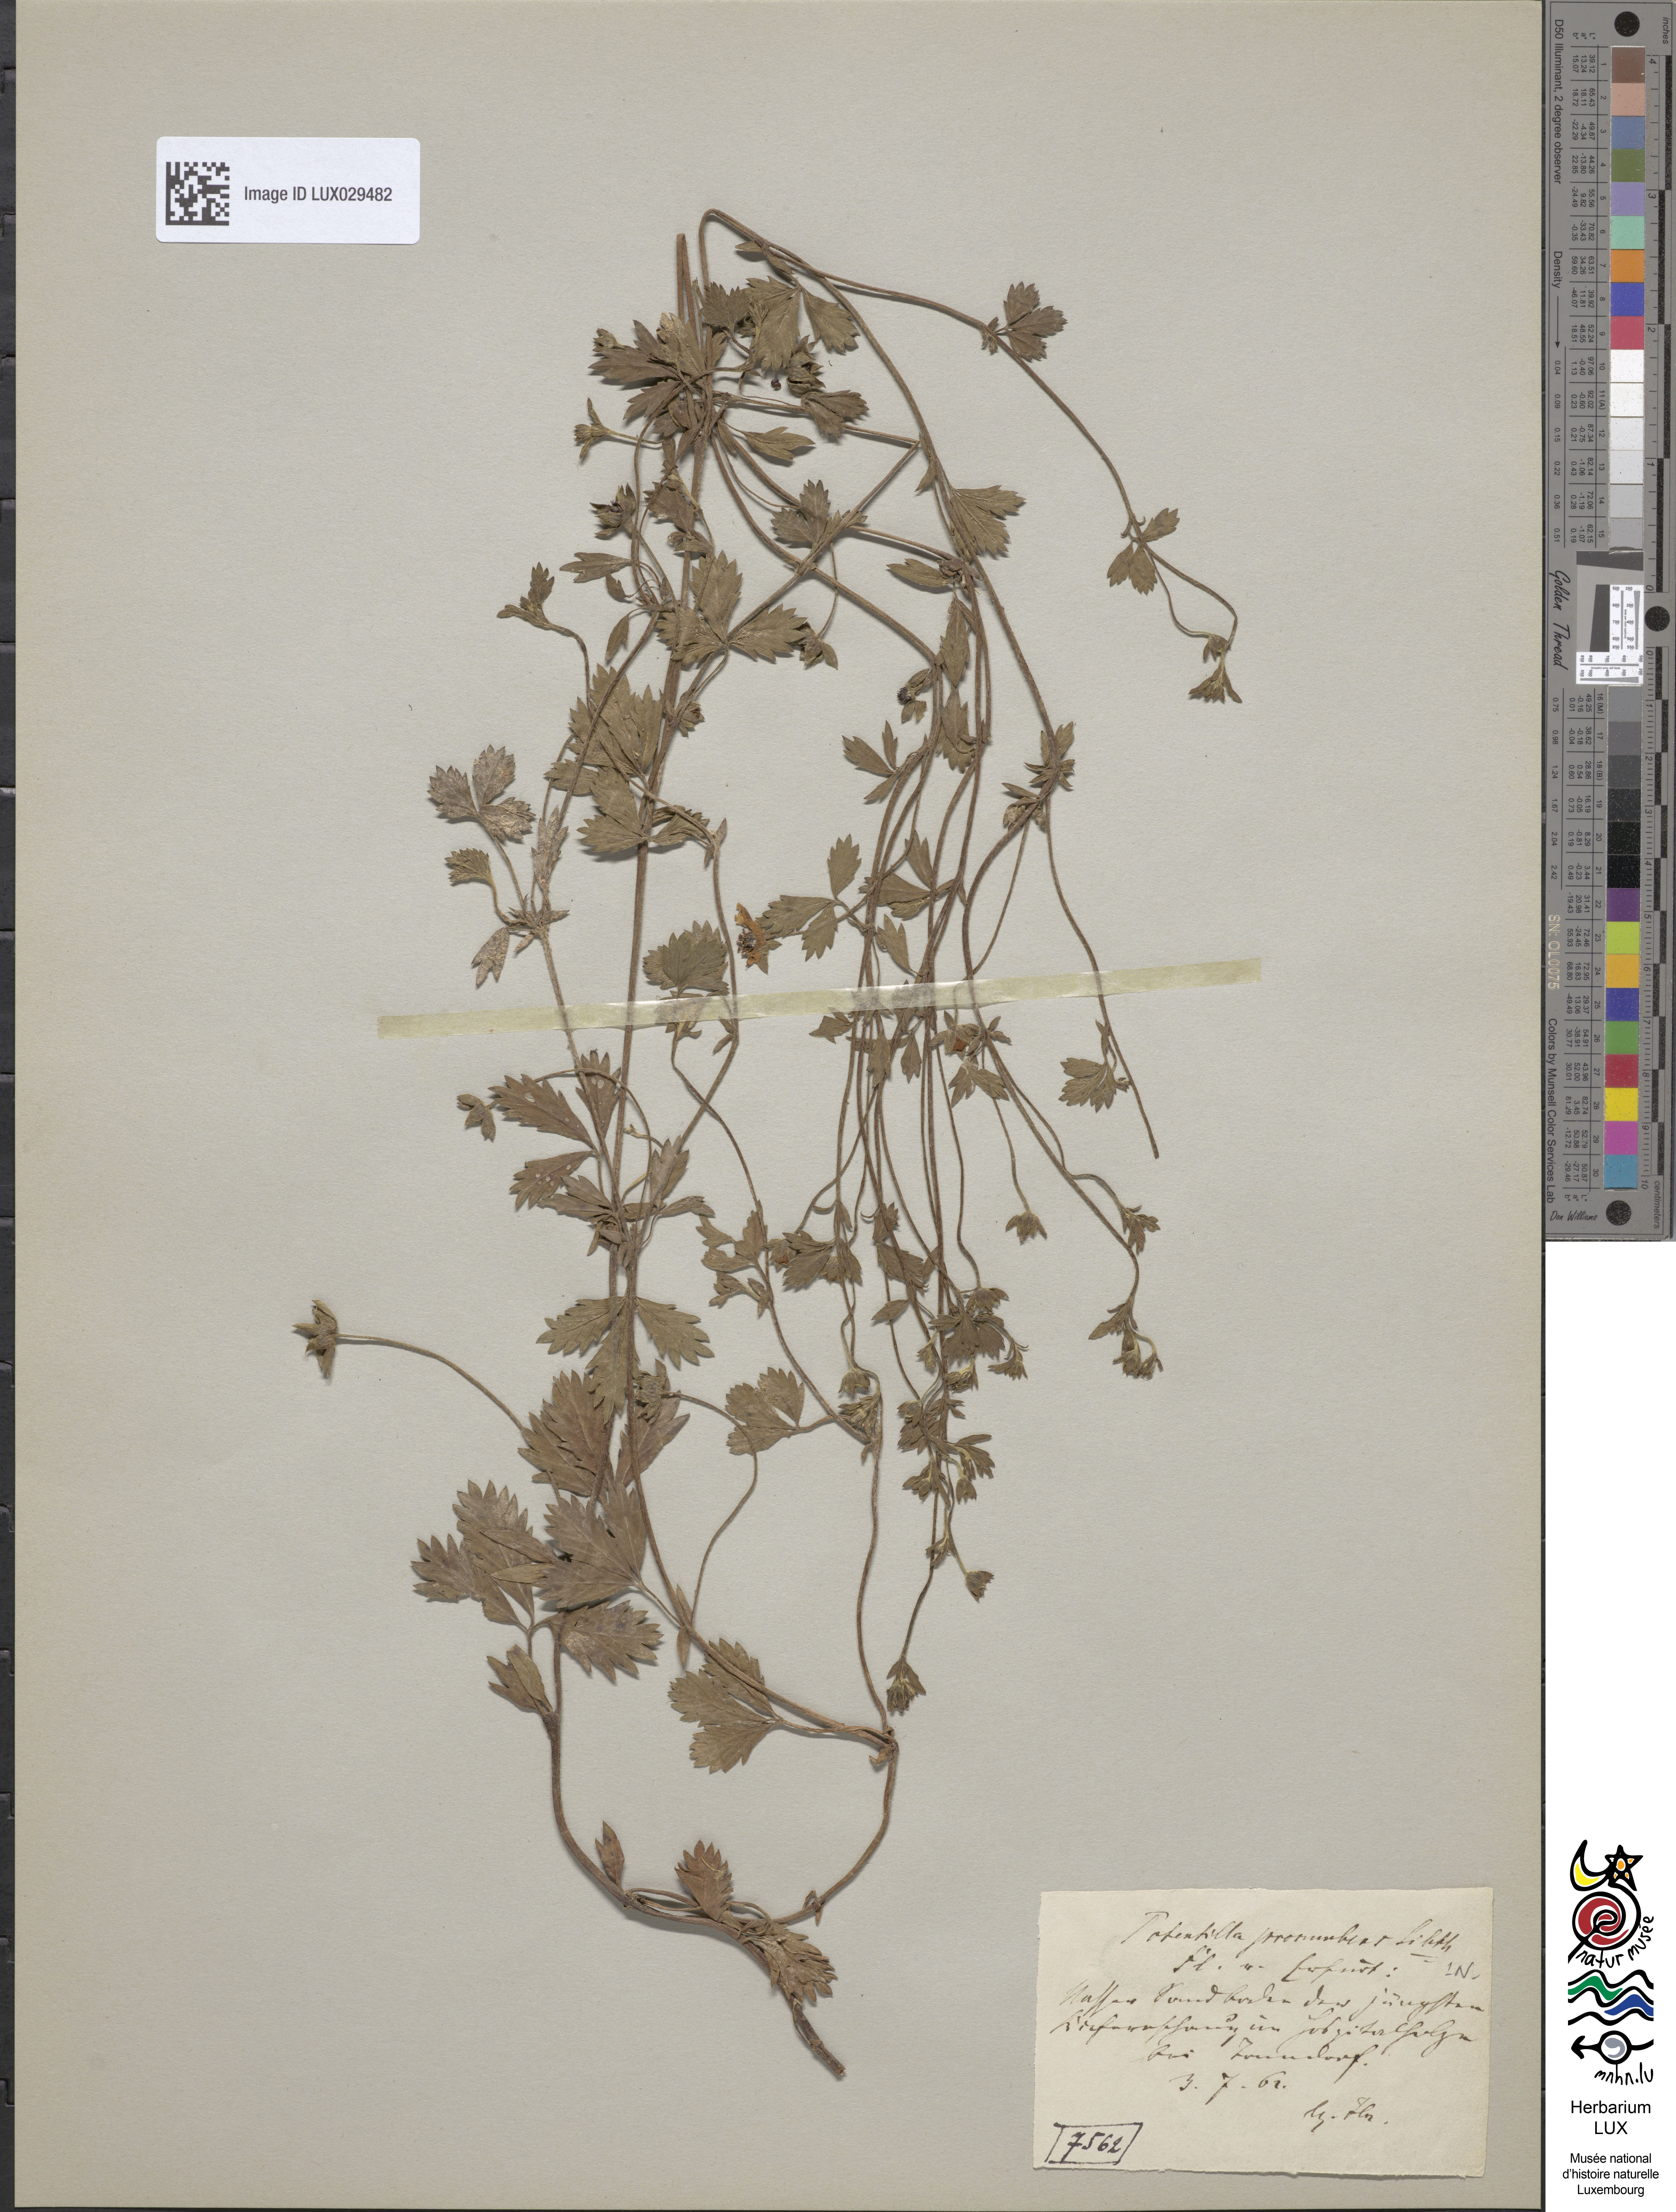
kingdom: Plantae
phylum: Tracheophyta
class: Magnoliopsida
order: Rosales
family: Rosaceae
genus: Potentilla
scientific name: Potentilla anglica
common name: Trailing tormentil
